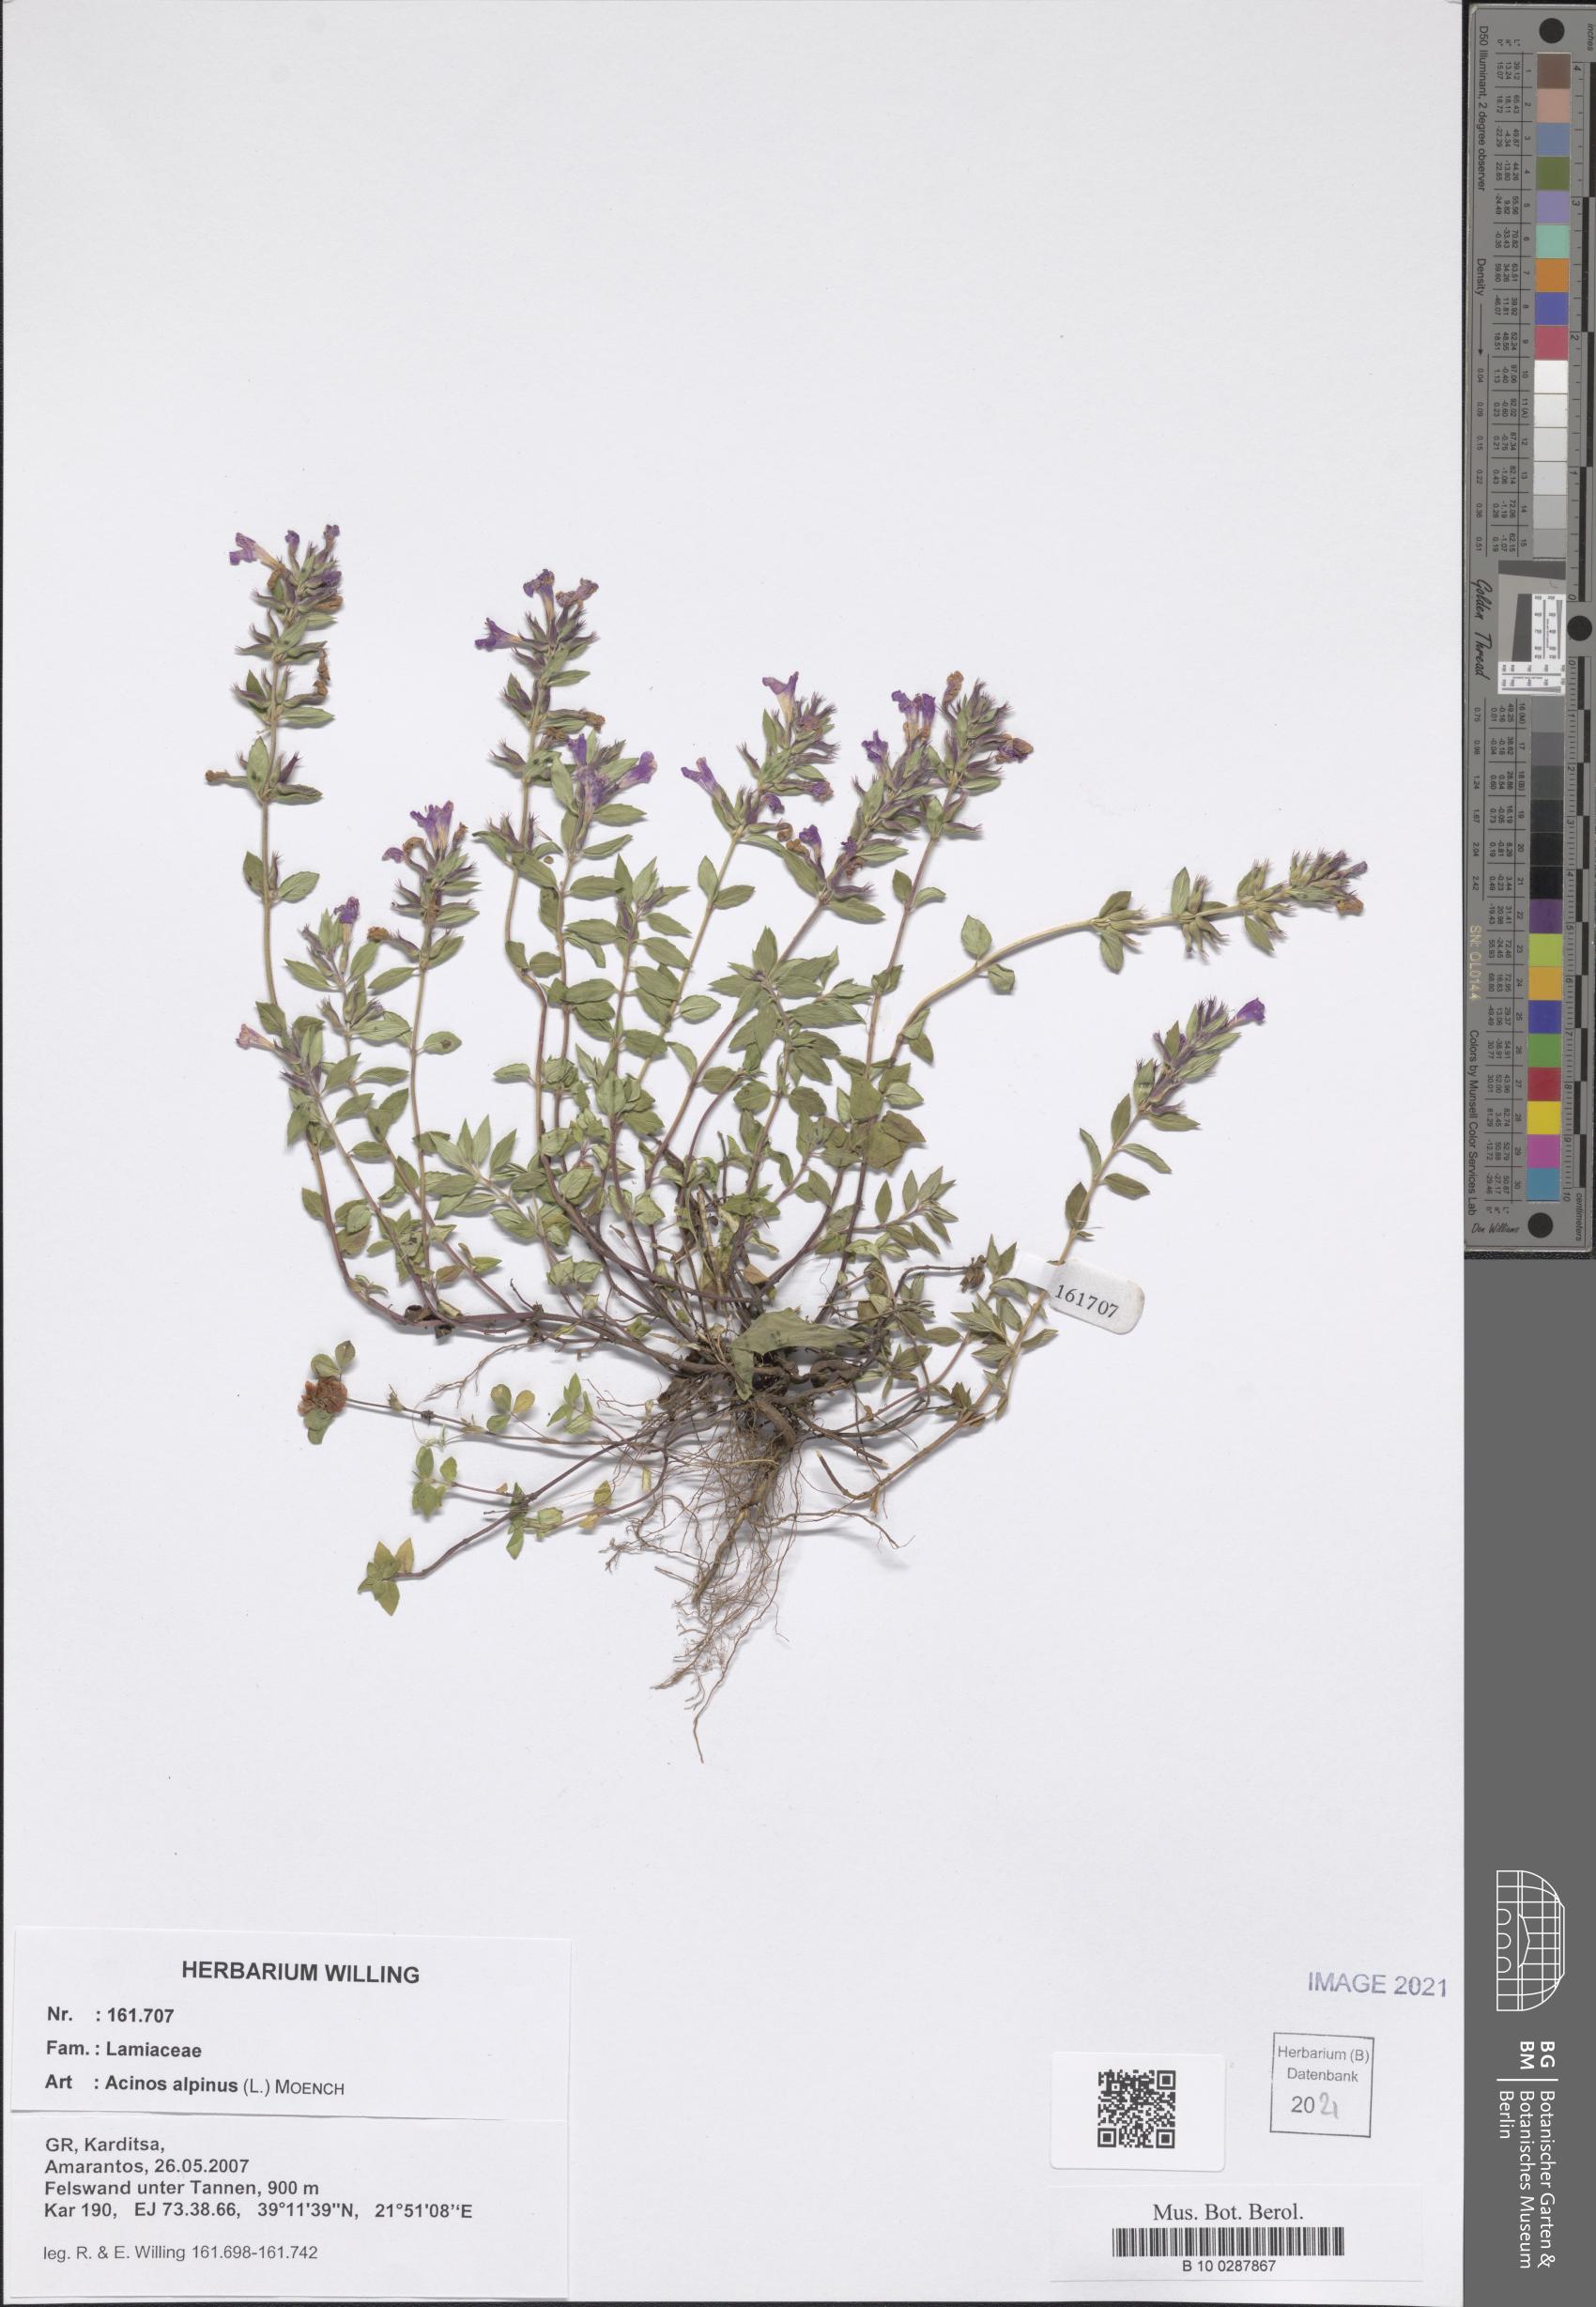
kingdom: Plantae
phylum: Tracheophyta
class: Magnoliopsida
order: Lamiales
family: Lamiaceae
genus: Clinopodium
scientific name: Clinopodium alpinum
